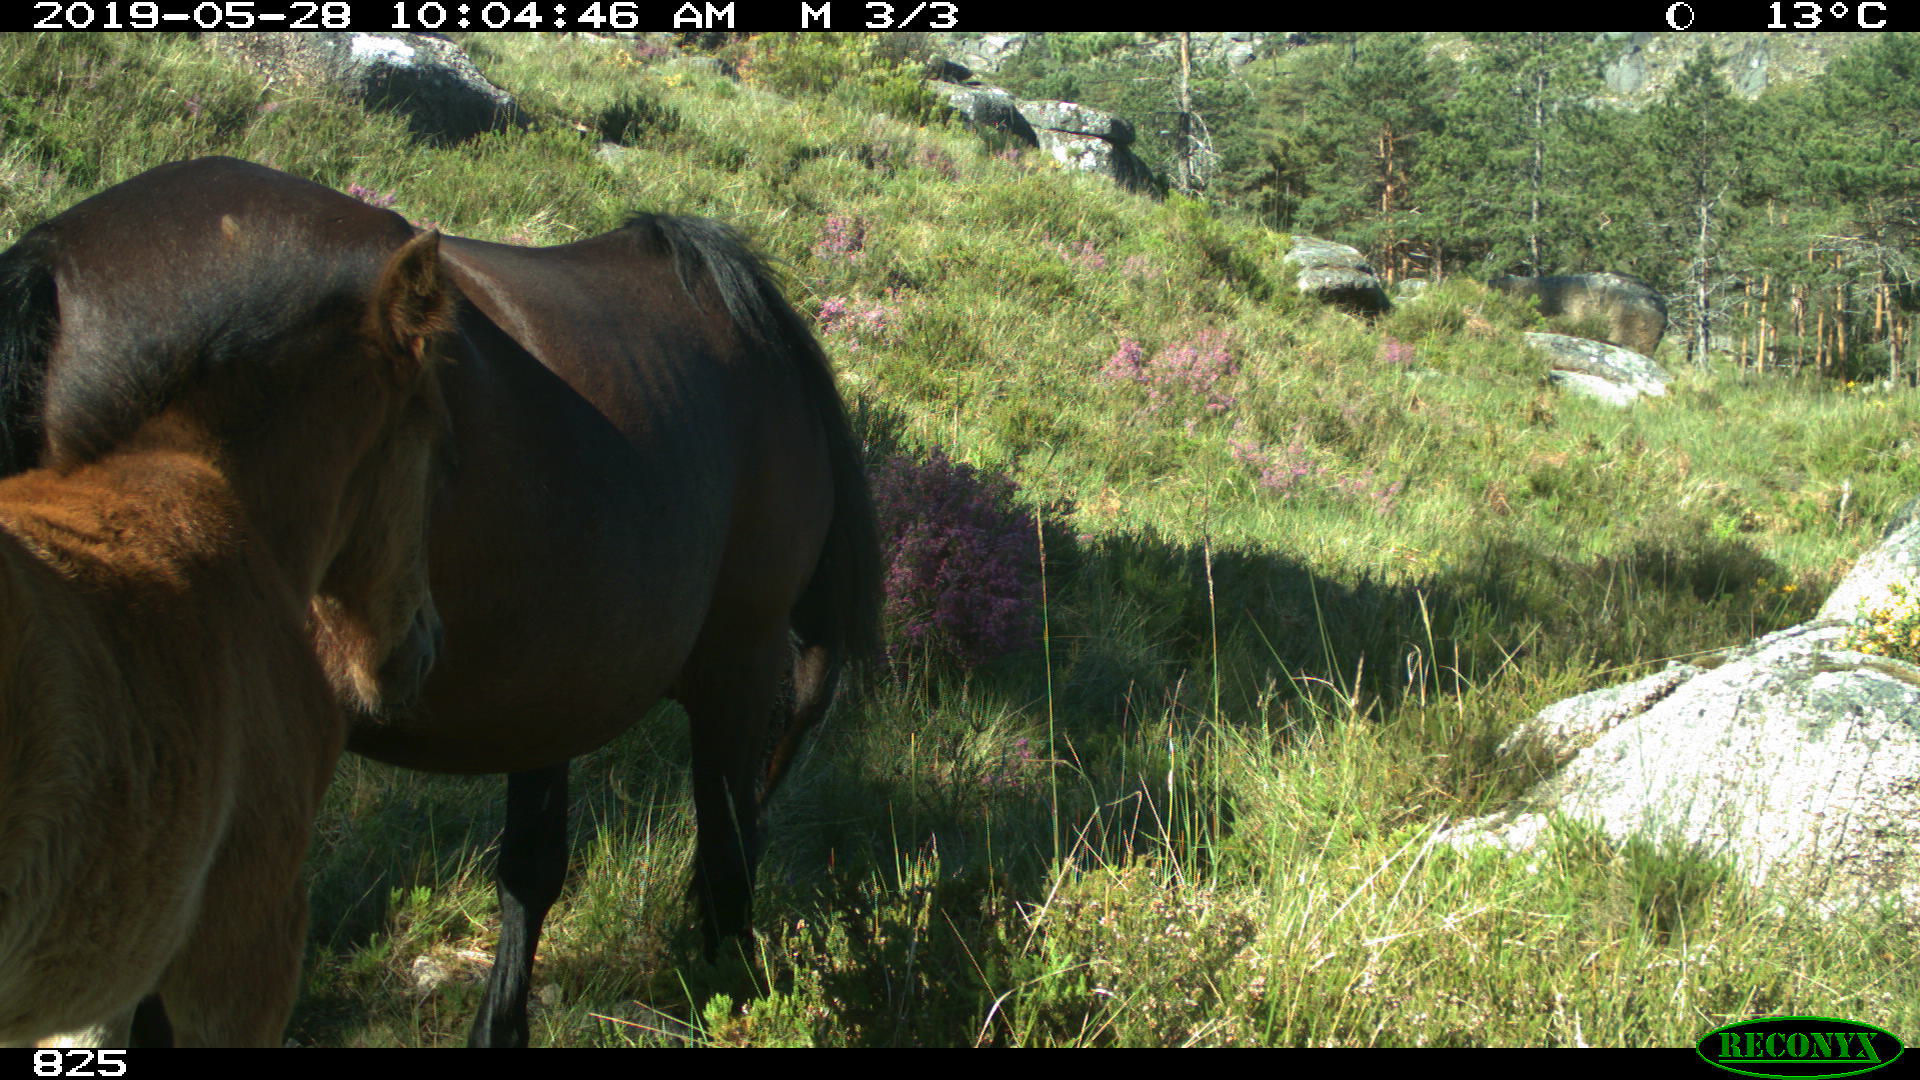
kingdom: Animalia
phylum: Chordata
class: Mammalia
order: Perissodactyla
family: Equidae
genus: Equus
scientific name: Equus caballus
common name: Horse
